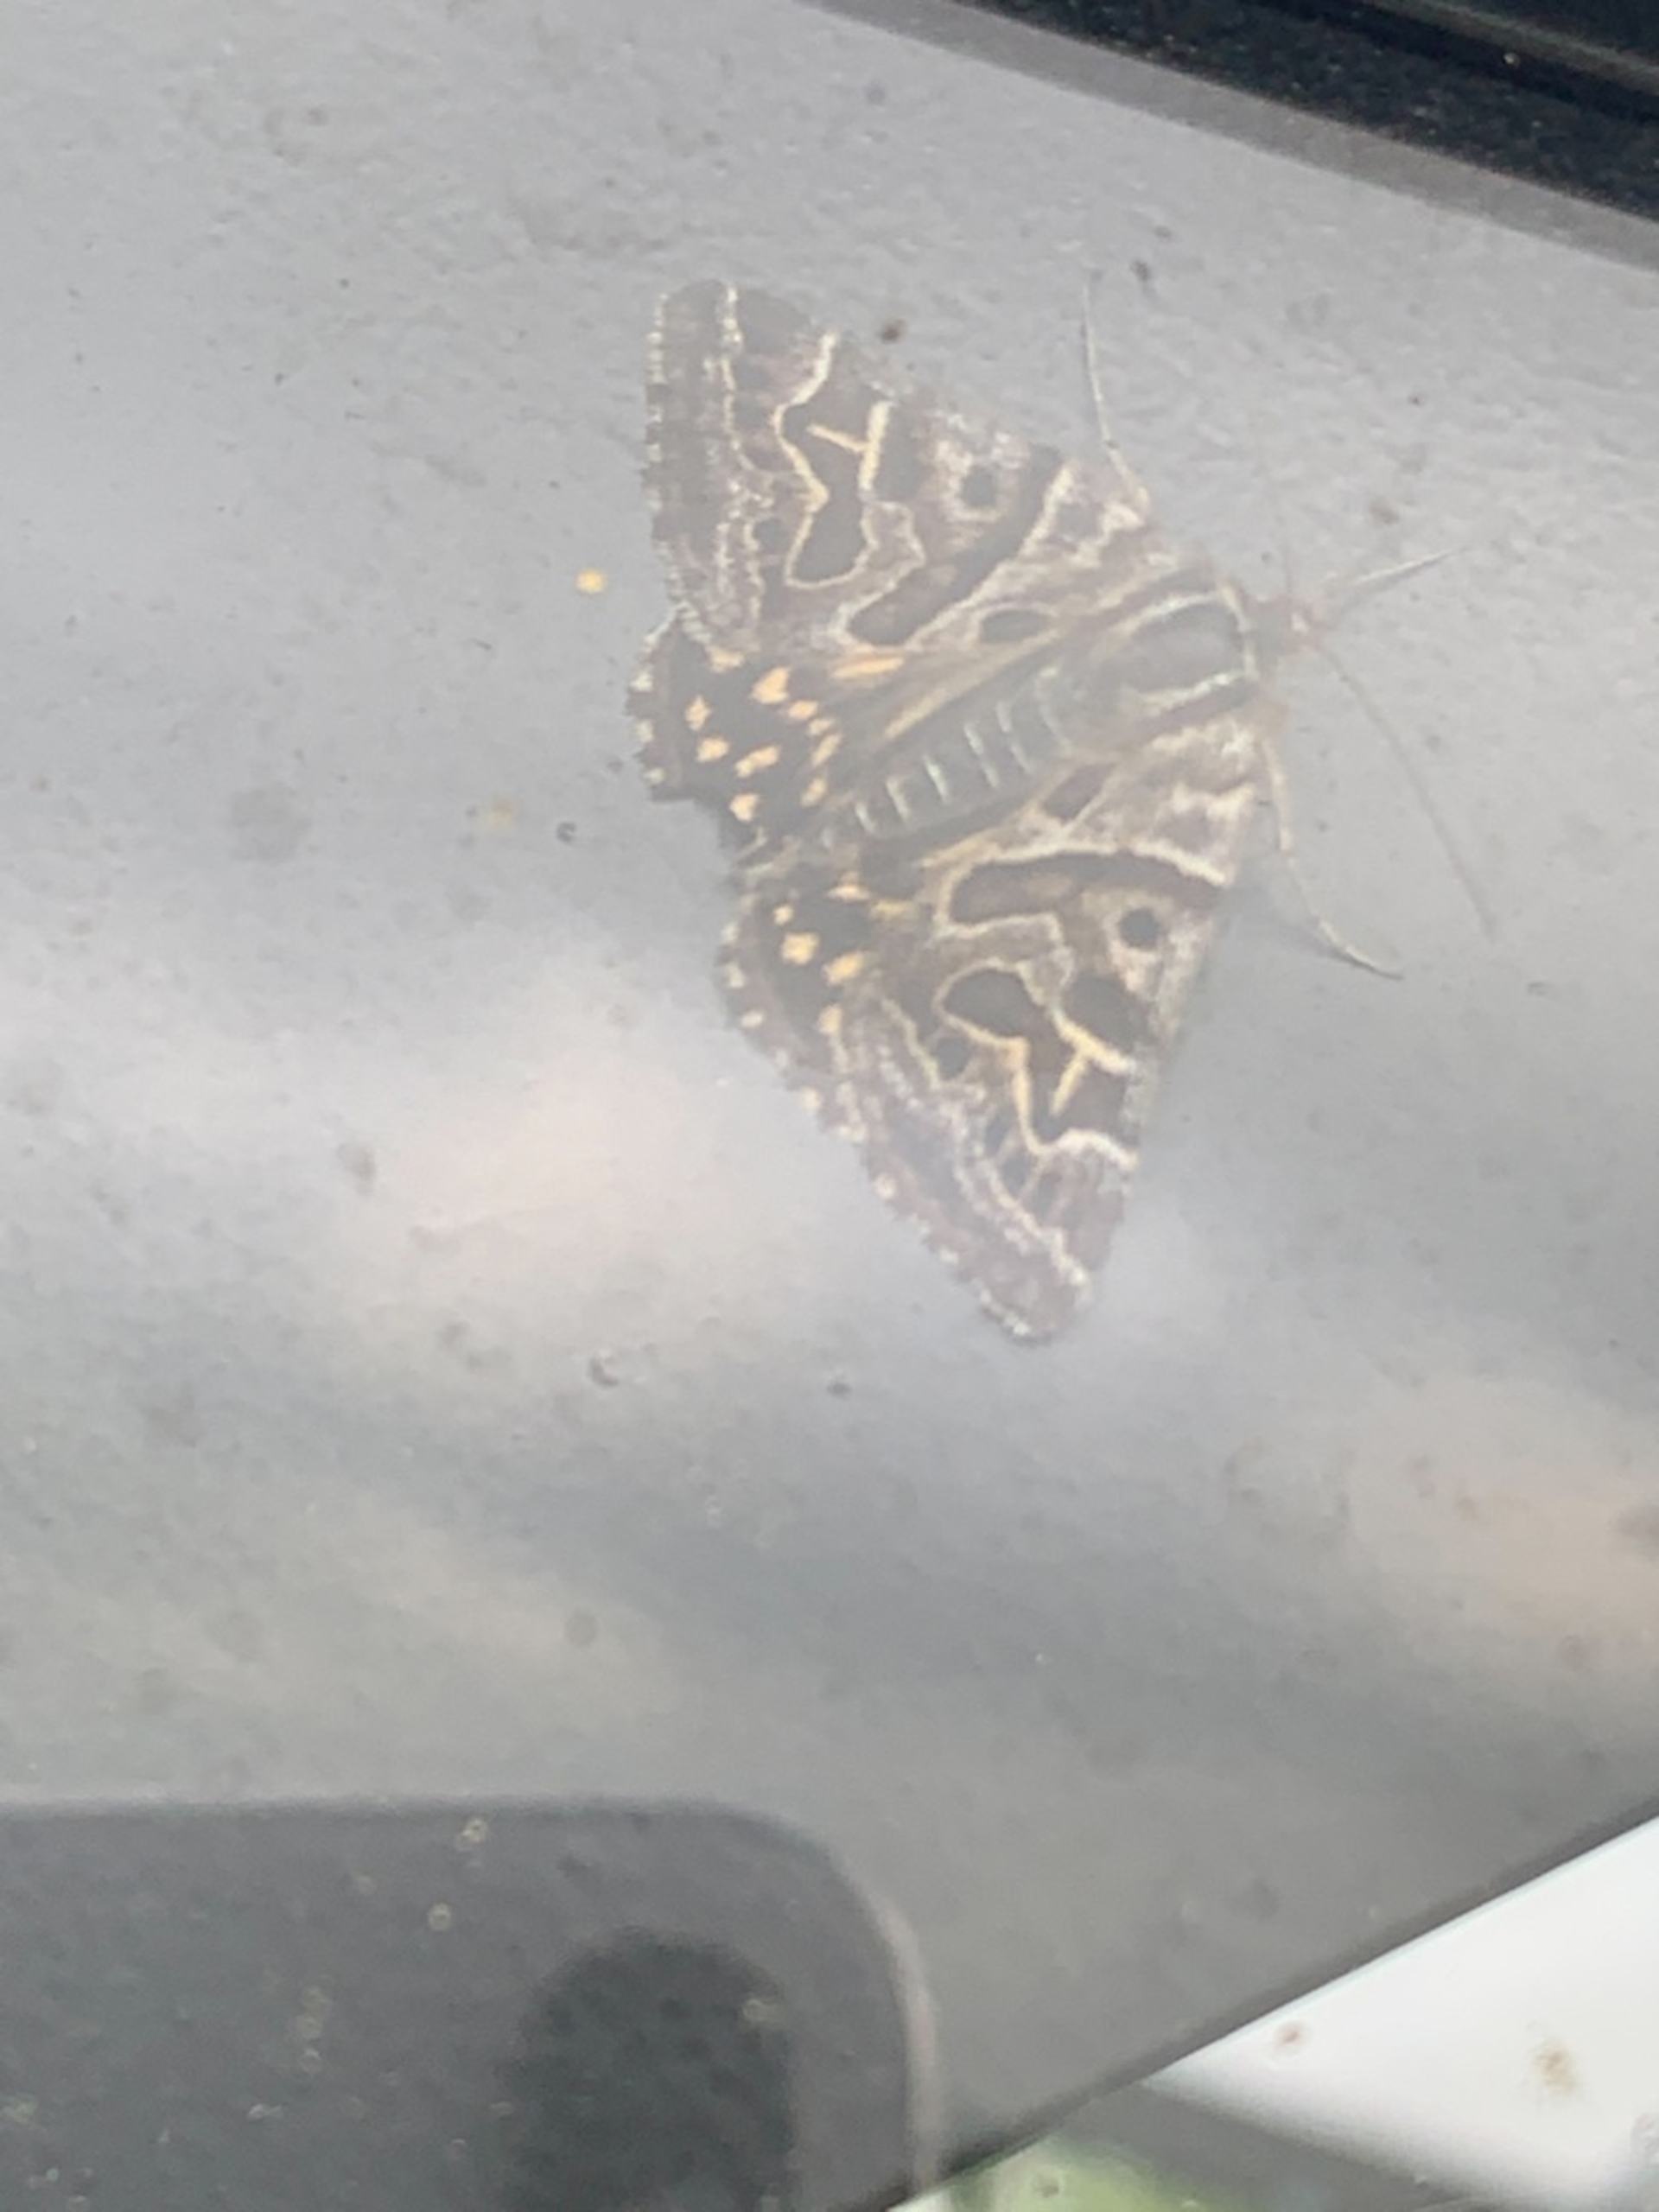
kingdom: Animalia
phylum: Arthropoda
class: Insecta
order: Lepidoptera
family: Erebidae
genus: Callistege
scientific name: Callistege mi
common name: Marmoreret kløverugle
